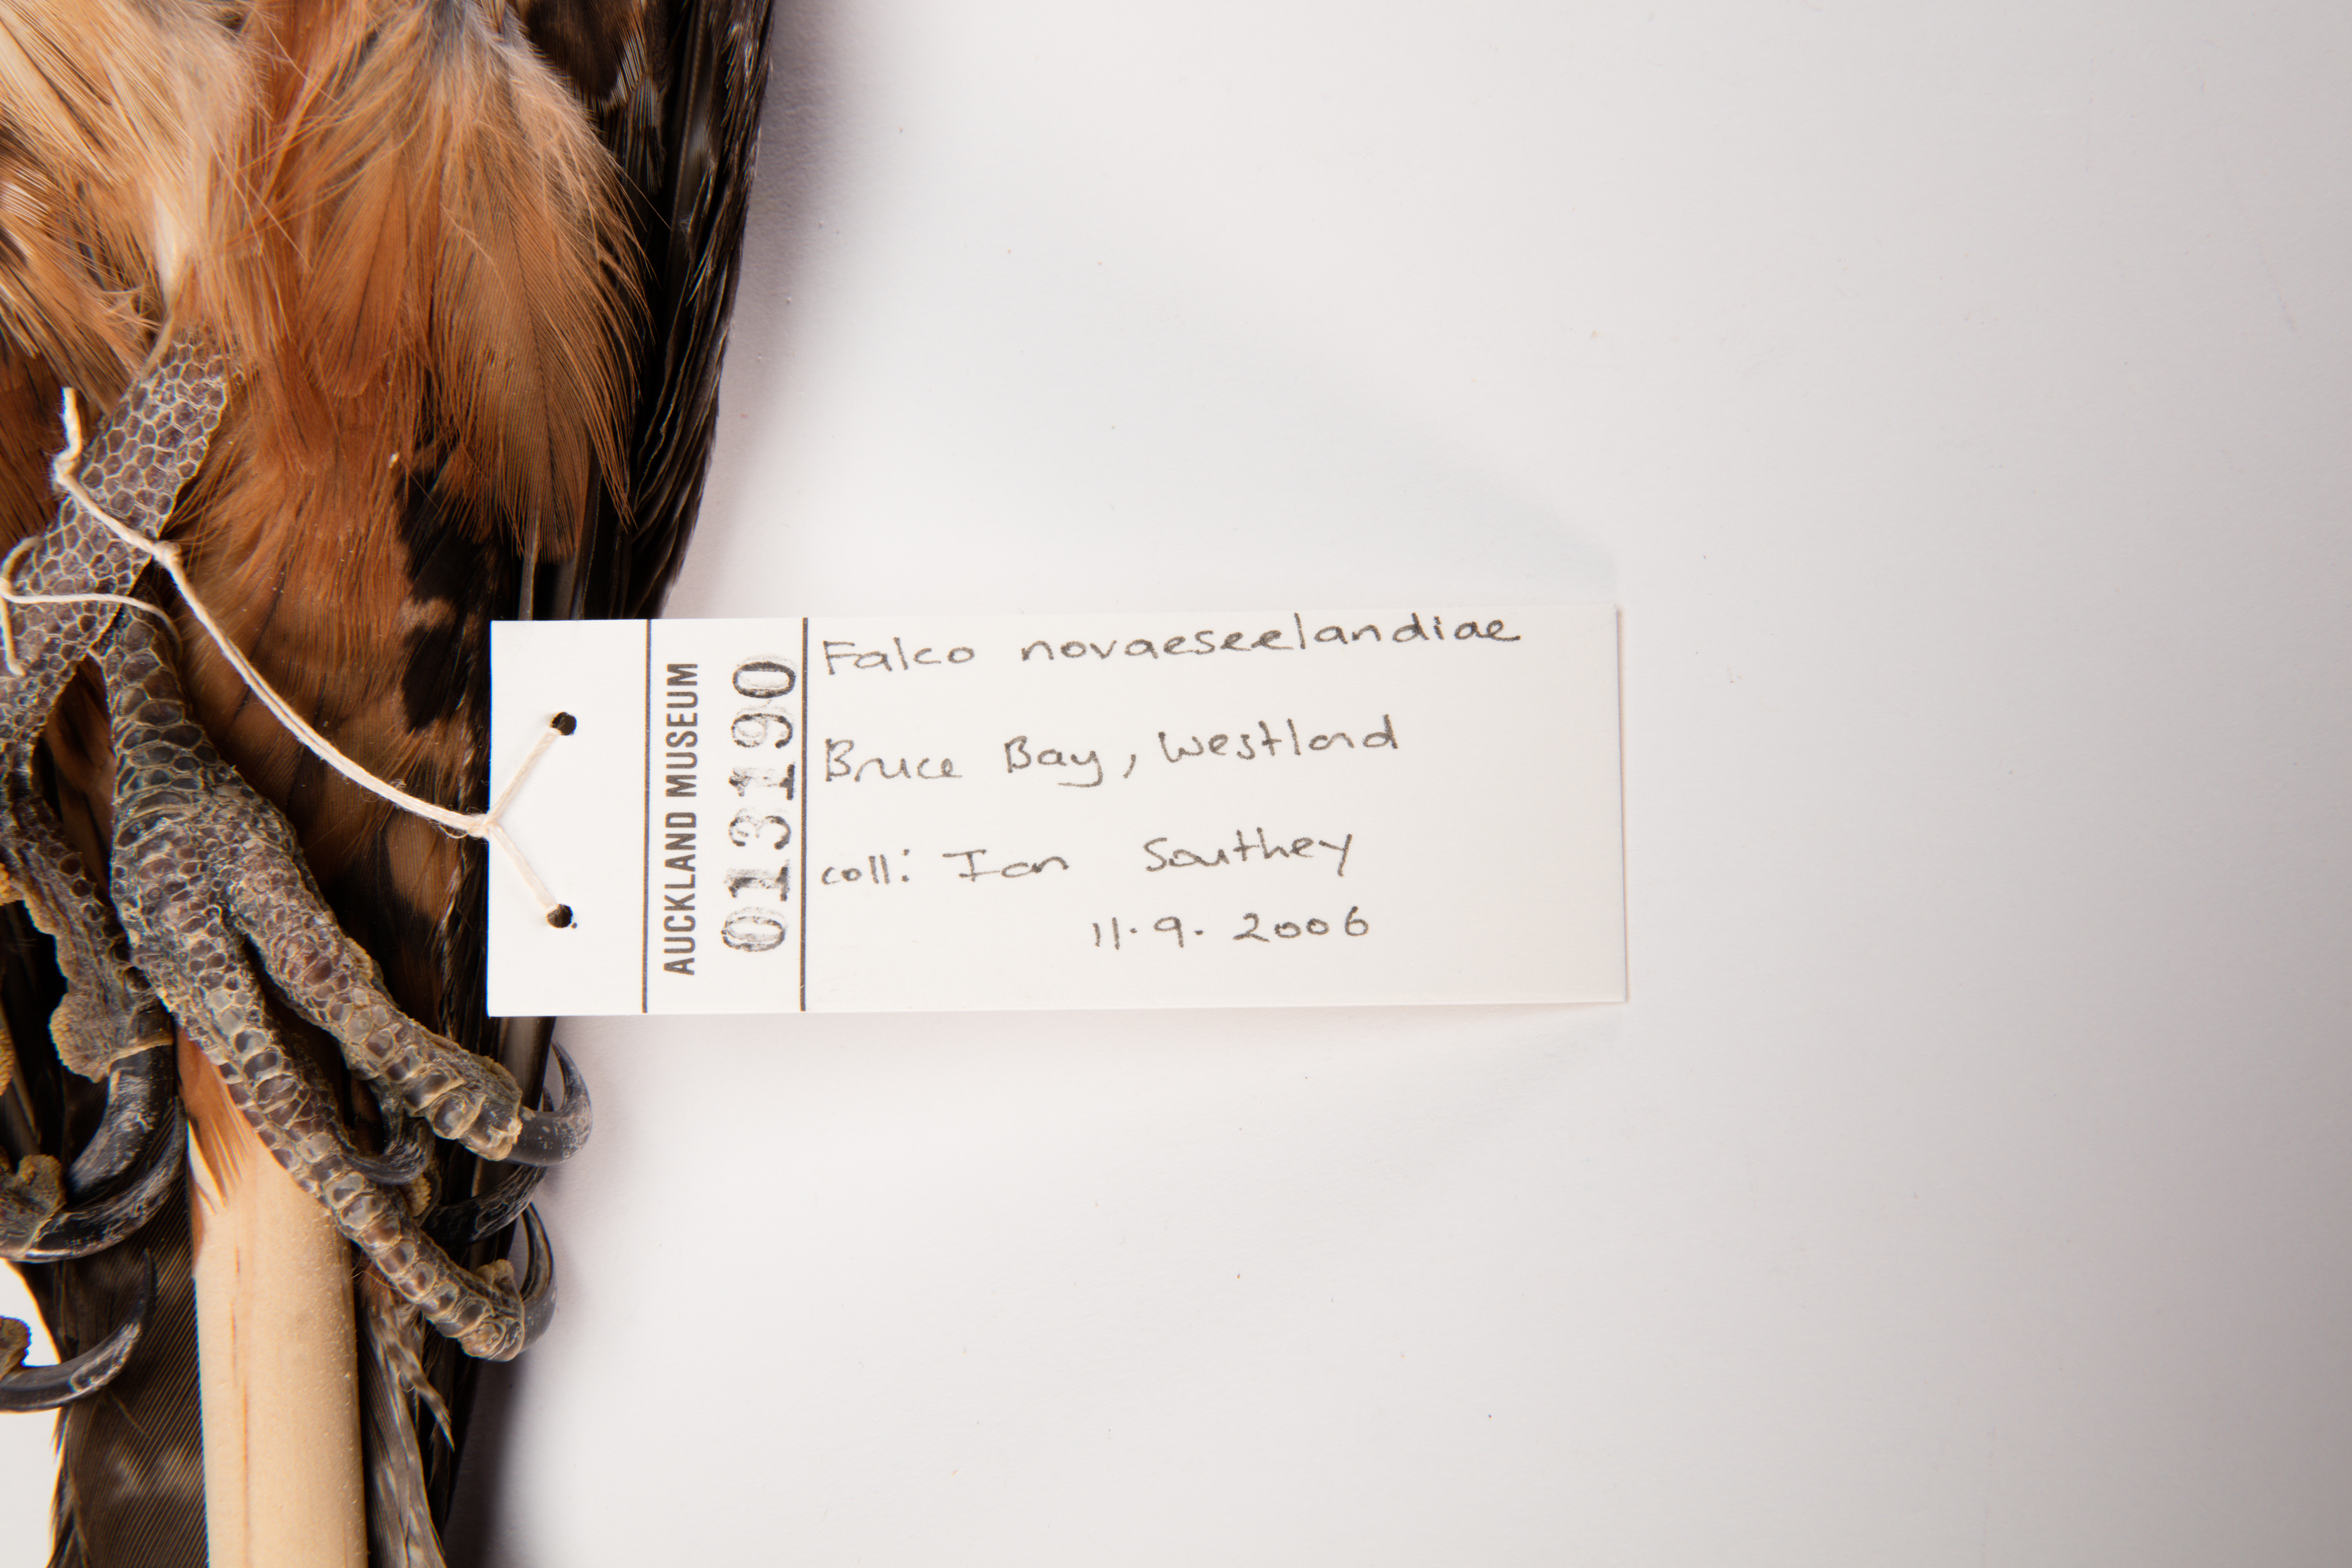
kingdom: Animalia
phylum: Chordata
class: Aves
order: Falconiformes
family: Falconidae
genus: Falco
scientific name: Falco novaeseelandiae
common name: New zealand falcon
